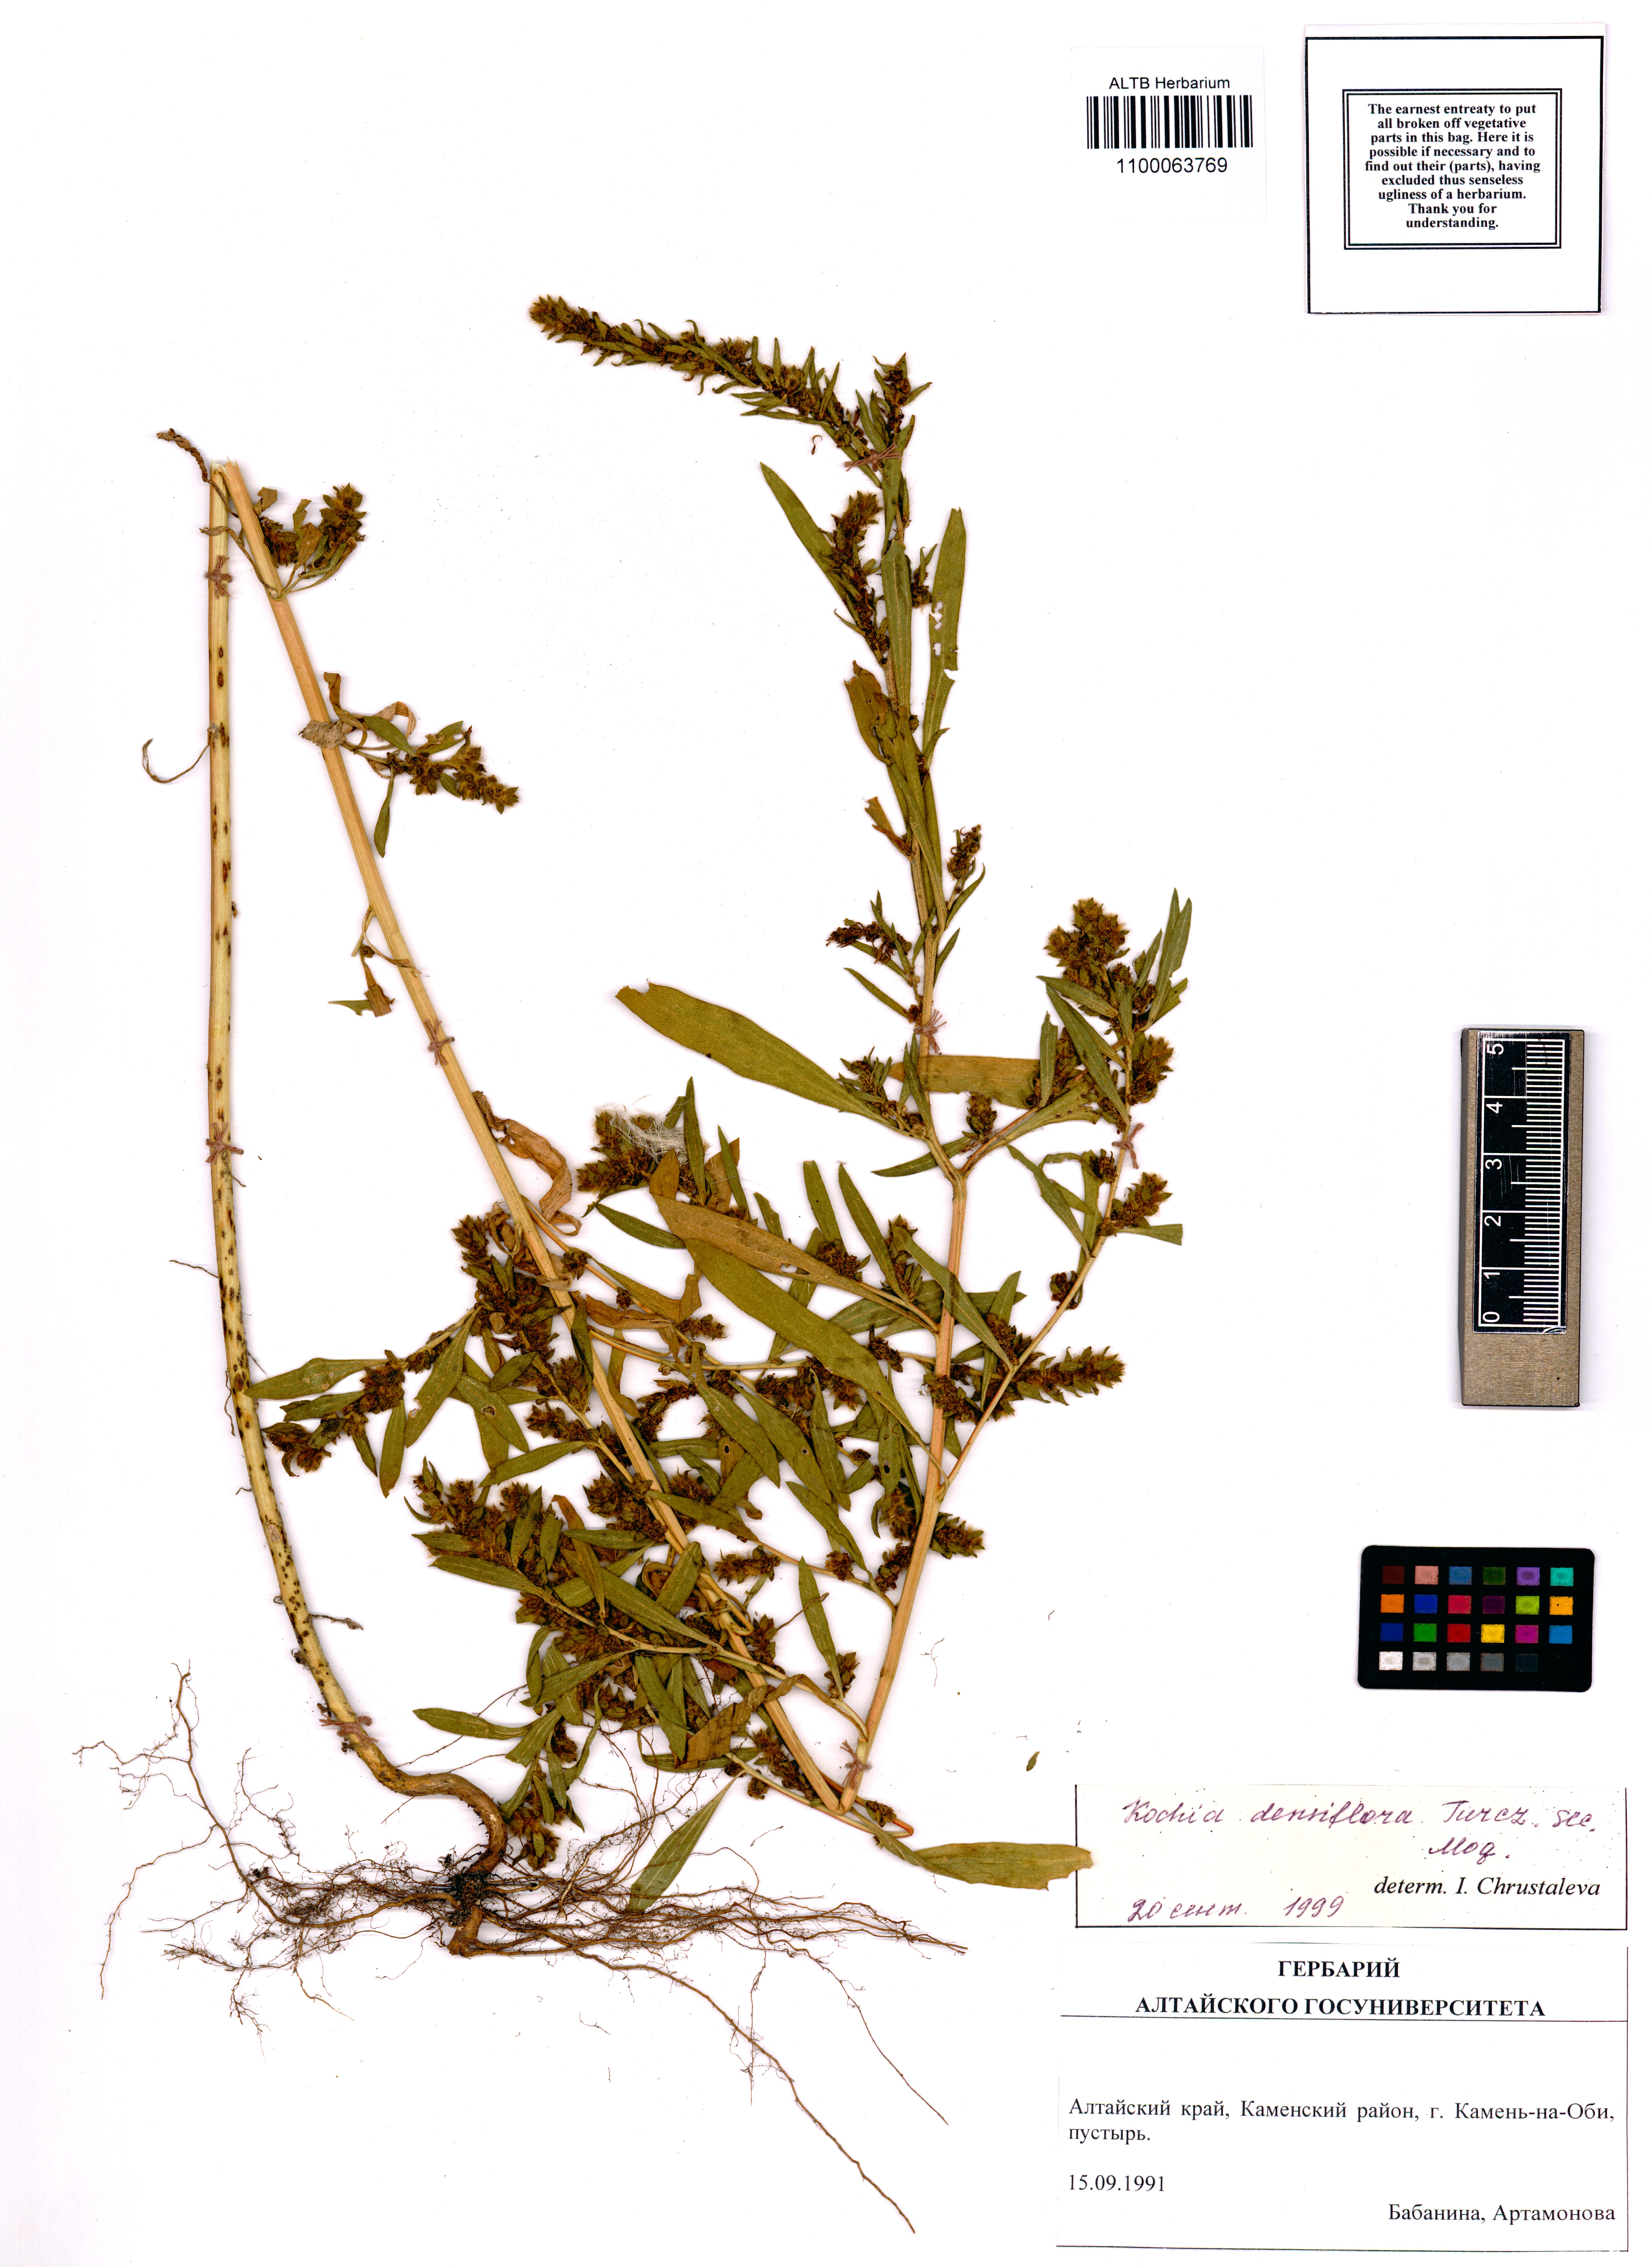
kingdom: Plantae
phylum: Tracheophyta
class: Magnoliopsida
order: Caryophyllales
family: Amaranthaceae
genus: Bassia
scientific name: Bassia scoparia
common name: Belvedere
